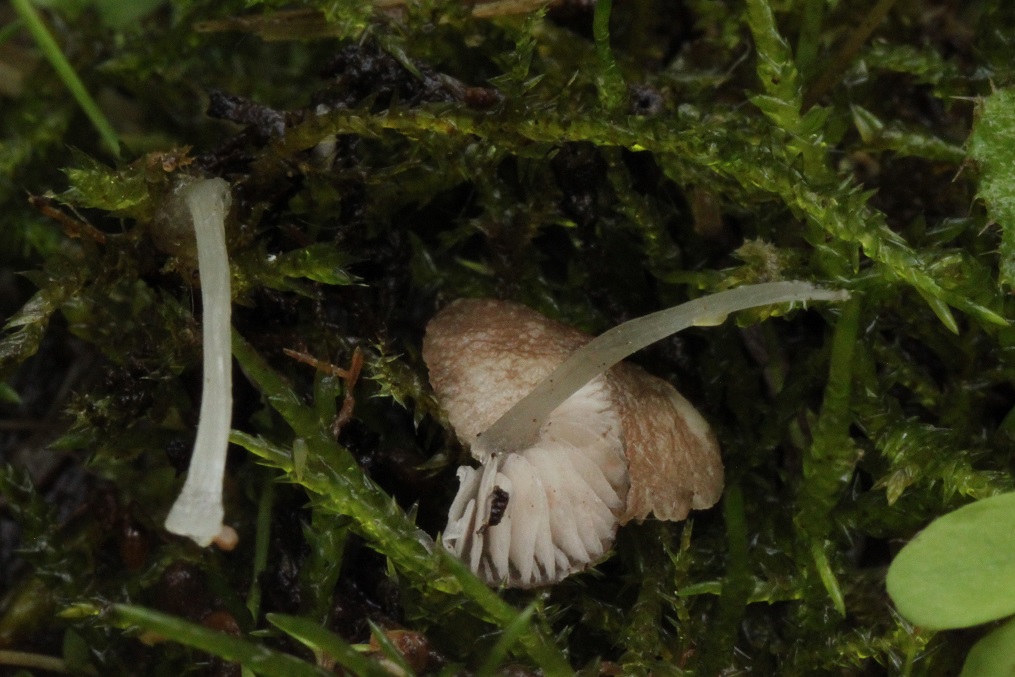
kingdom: Fungi
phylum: Basidiomycota
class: Agaricomycetes
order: Agaricales
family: Pluteaceae
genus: Pluteus
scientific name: Pluteus
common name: pudret skærmhat
